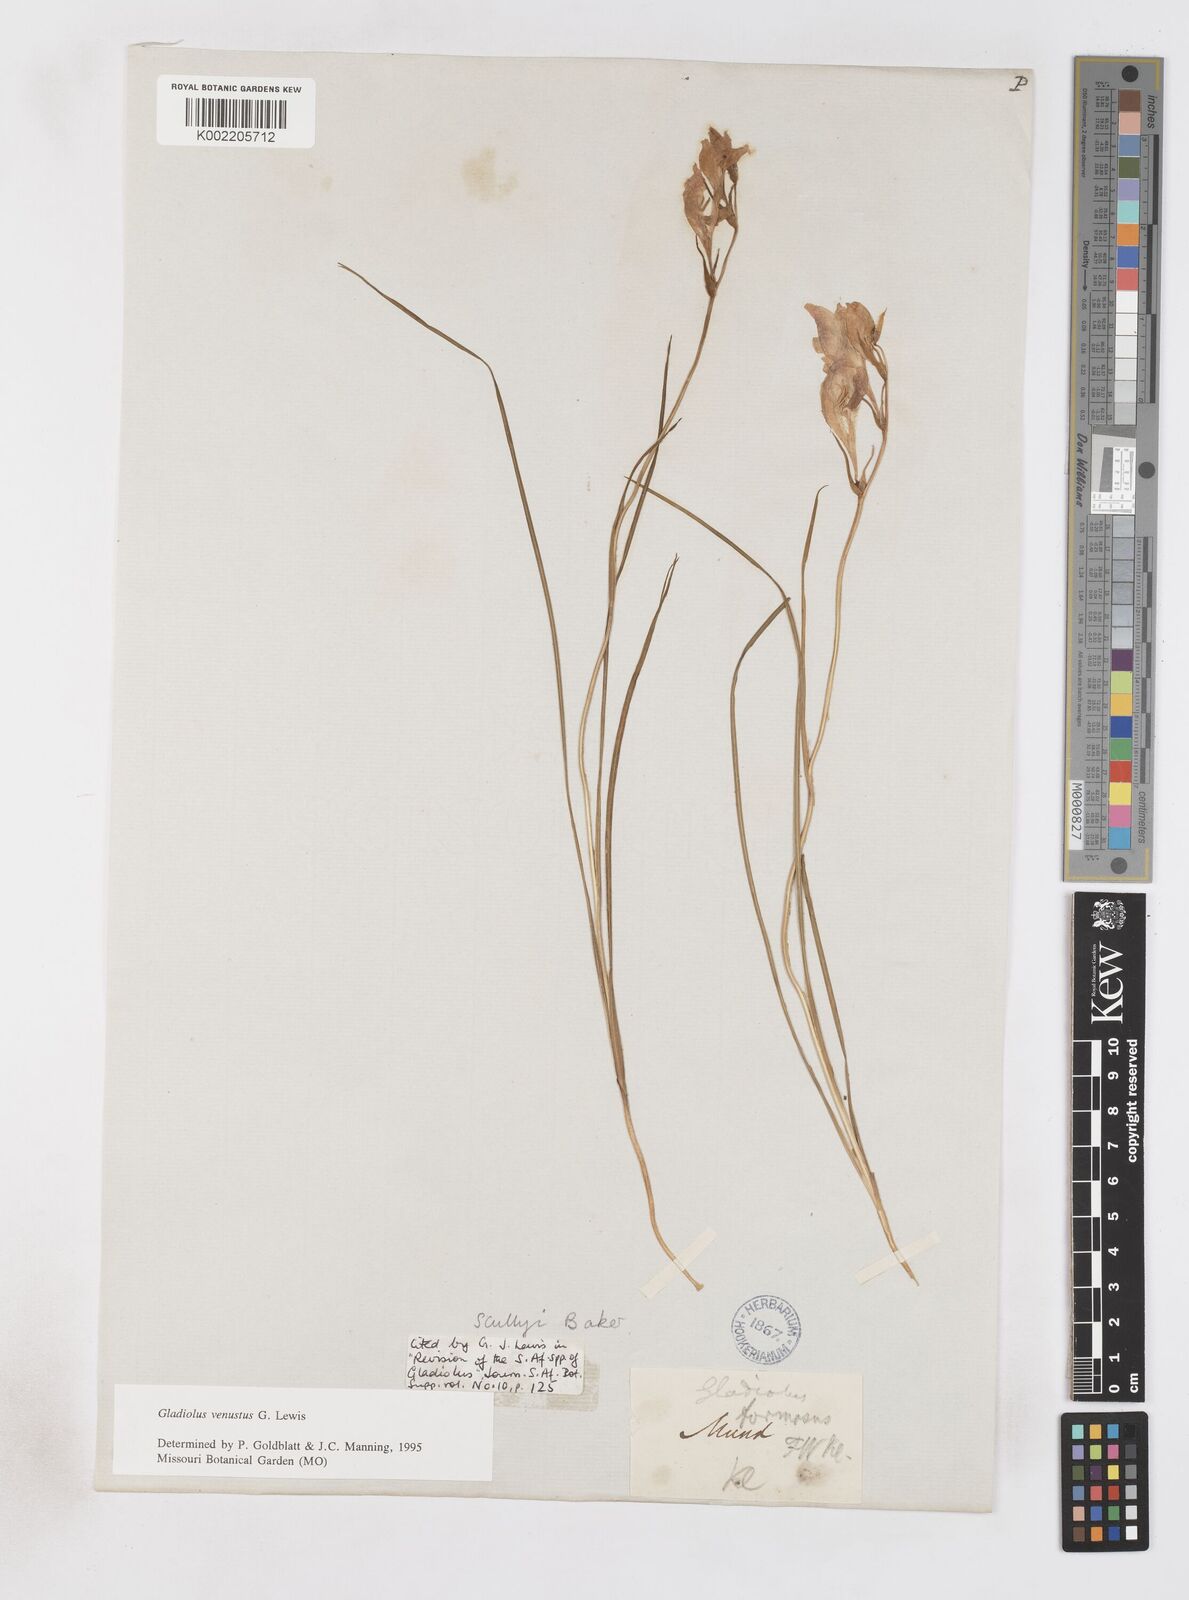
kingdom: Plantae
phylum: Tracheophyta
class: Liliopsida
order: Asparagales
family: Iridaceae
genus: Gladiolus
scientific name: Gladiolus venustus
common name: Purple kalkoentjie
